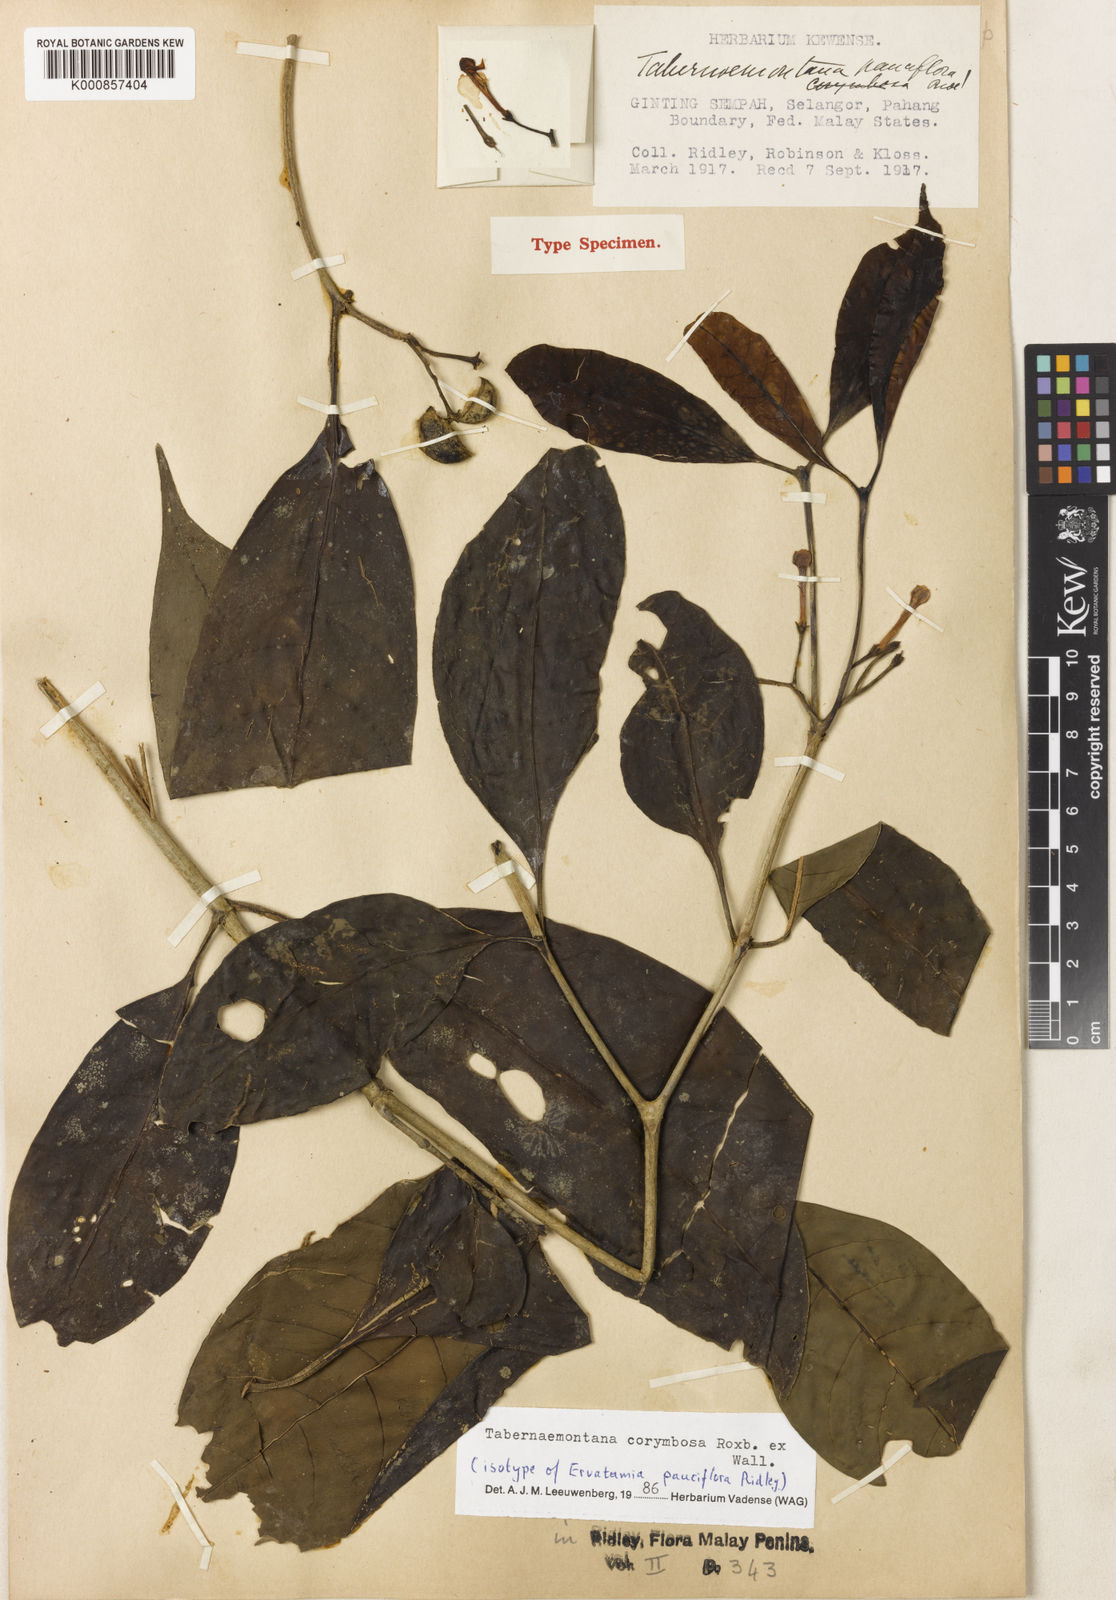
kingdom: Plantae
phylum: Tracheophyta
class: Magnoliopsida
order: Gentianales
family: Apocynaceae
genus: Tabernaemontana
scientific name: Tabernaemontana corymbosa
